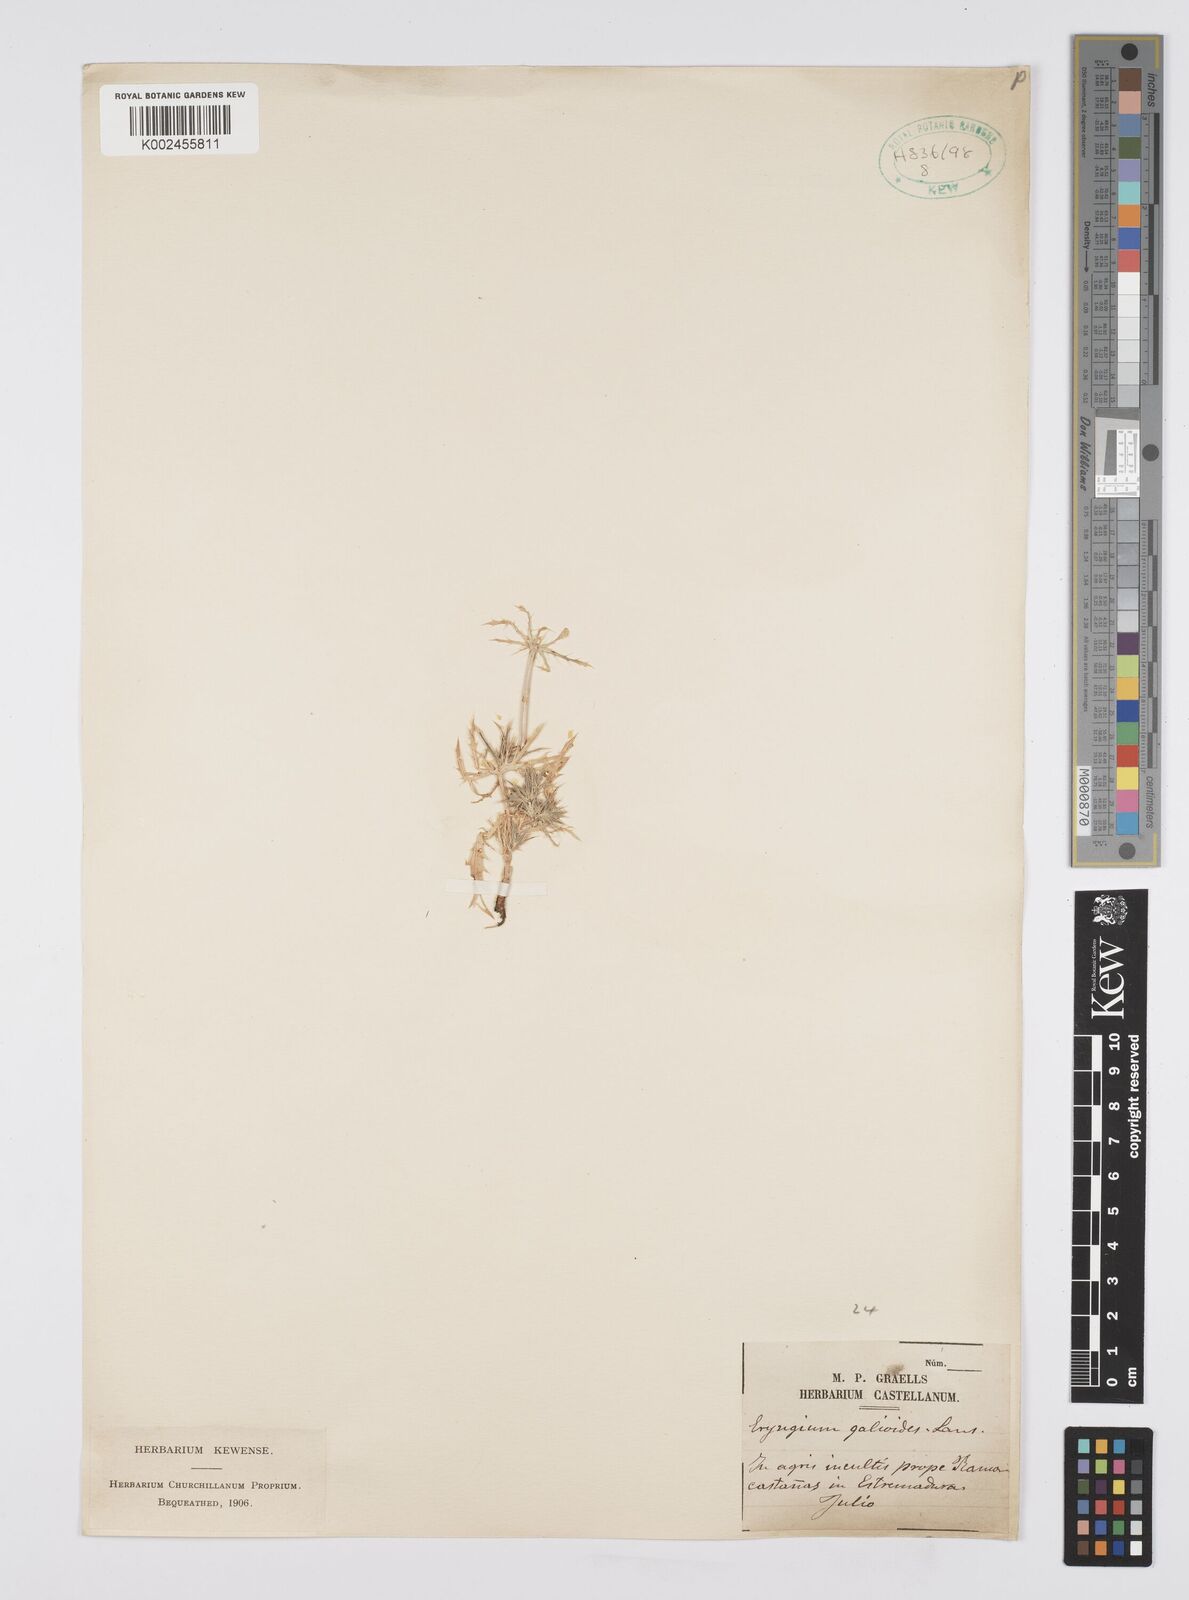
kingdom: Plantae
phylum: Tracheophyta
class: Magnoliopsida
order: Apiales
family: Apiaceae
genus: Eryngium
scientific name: Eryngium galioides
